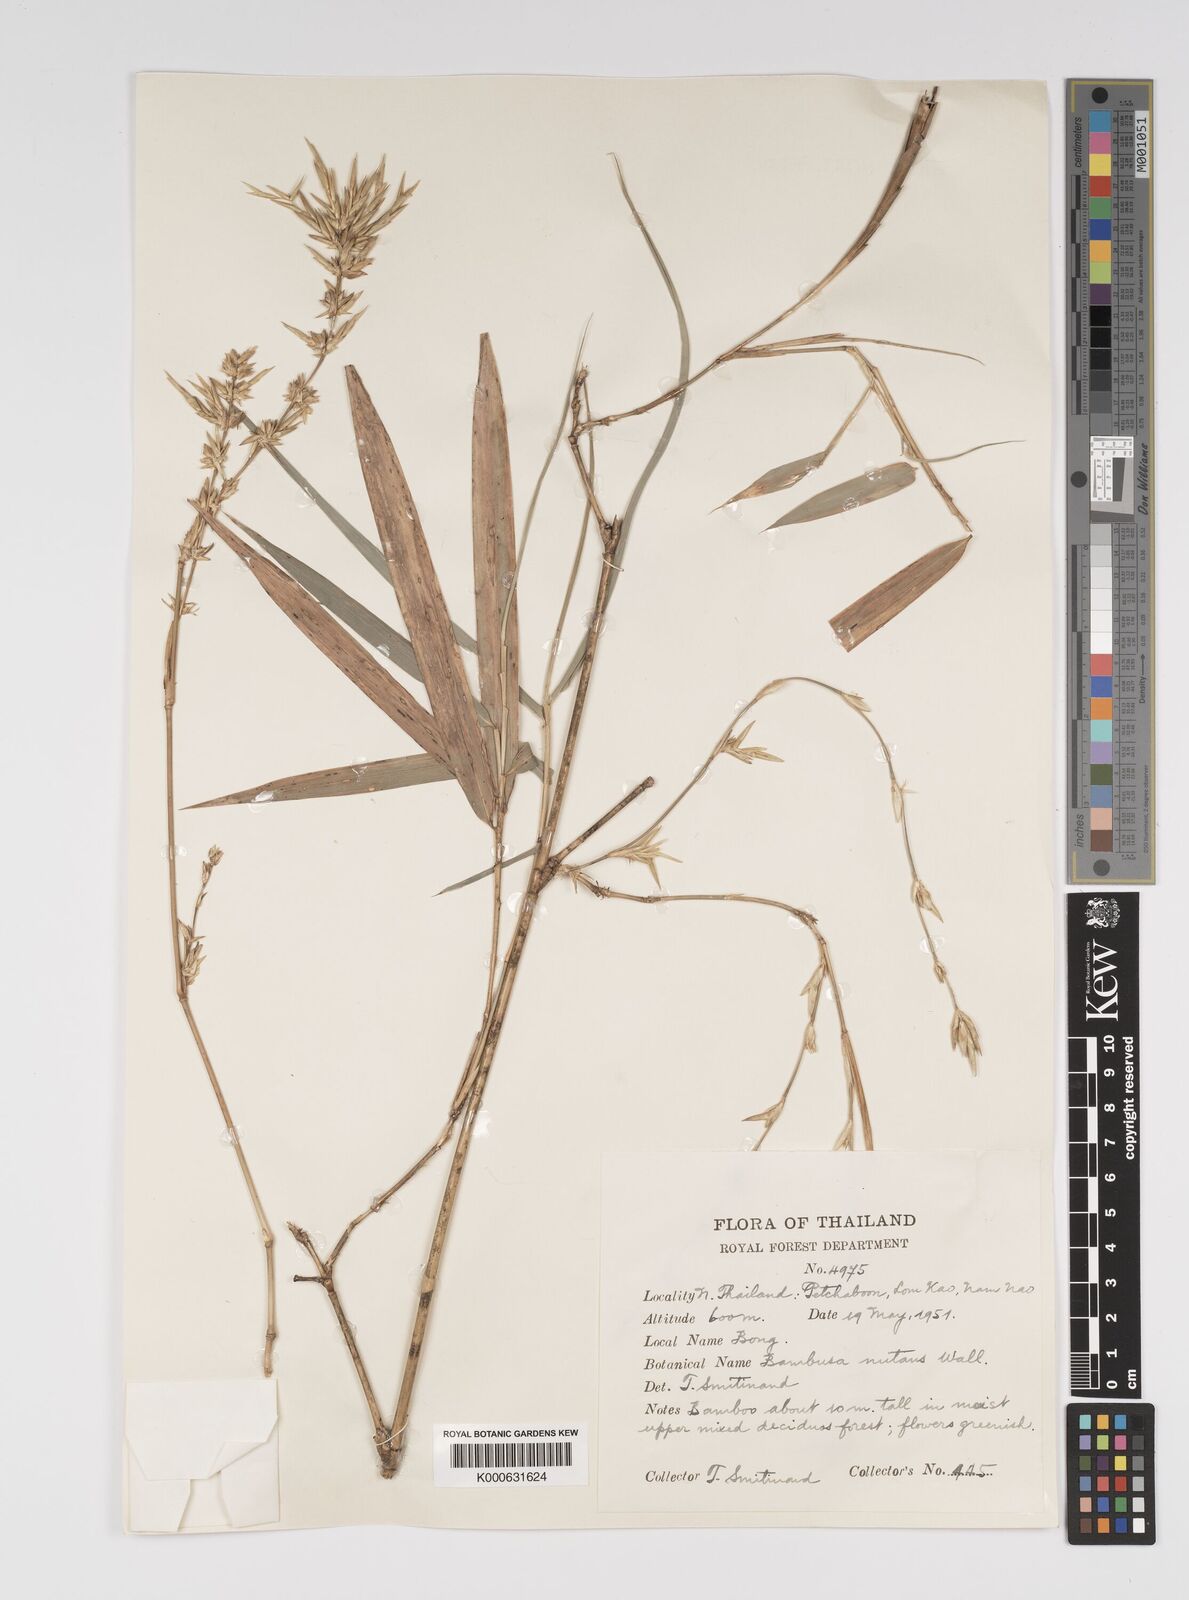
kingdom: Plantae
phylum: Tracheophyta
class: Liliopsida
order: Poales
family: Poaceae
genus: Bambusa
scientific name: Bambusa nutans
